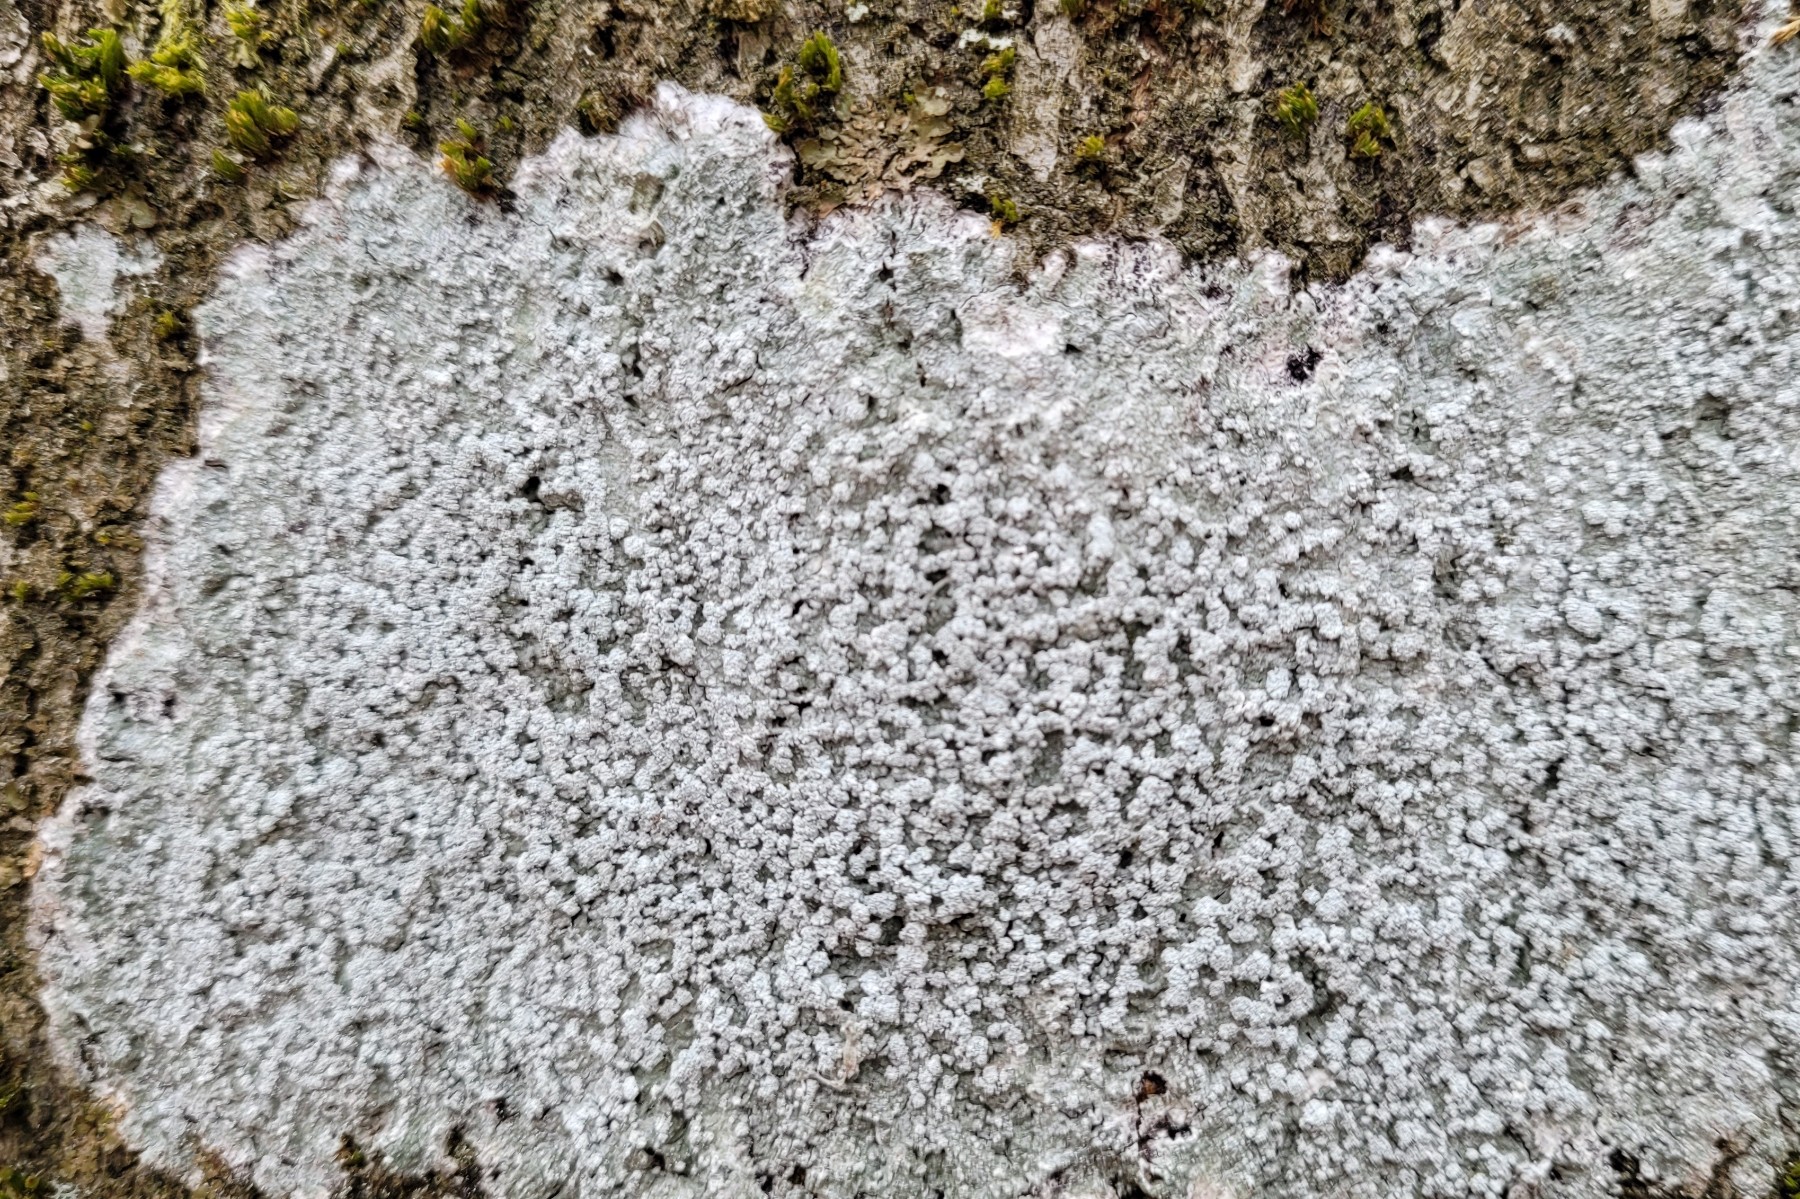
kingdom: Fungi
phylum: Ascomycota
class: Lecanoromycetes
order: Pertusariales
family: Pertusariaceae
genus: Lepra
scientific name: Lepra amara
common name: bitter prikvortelav
